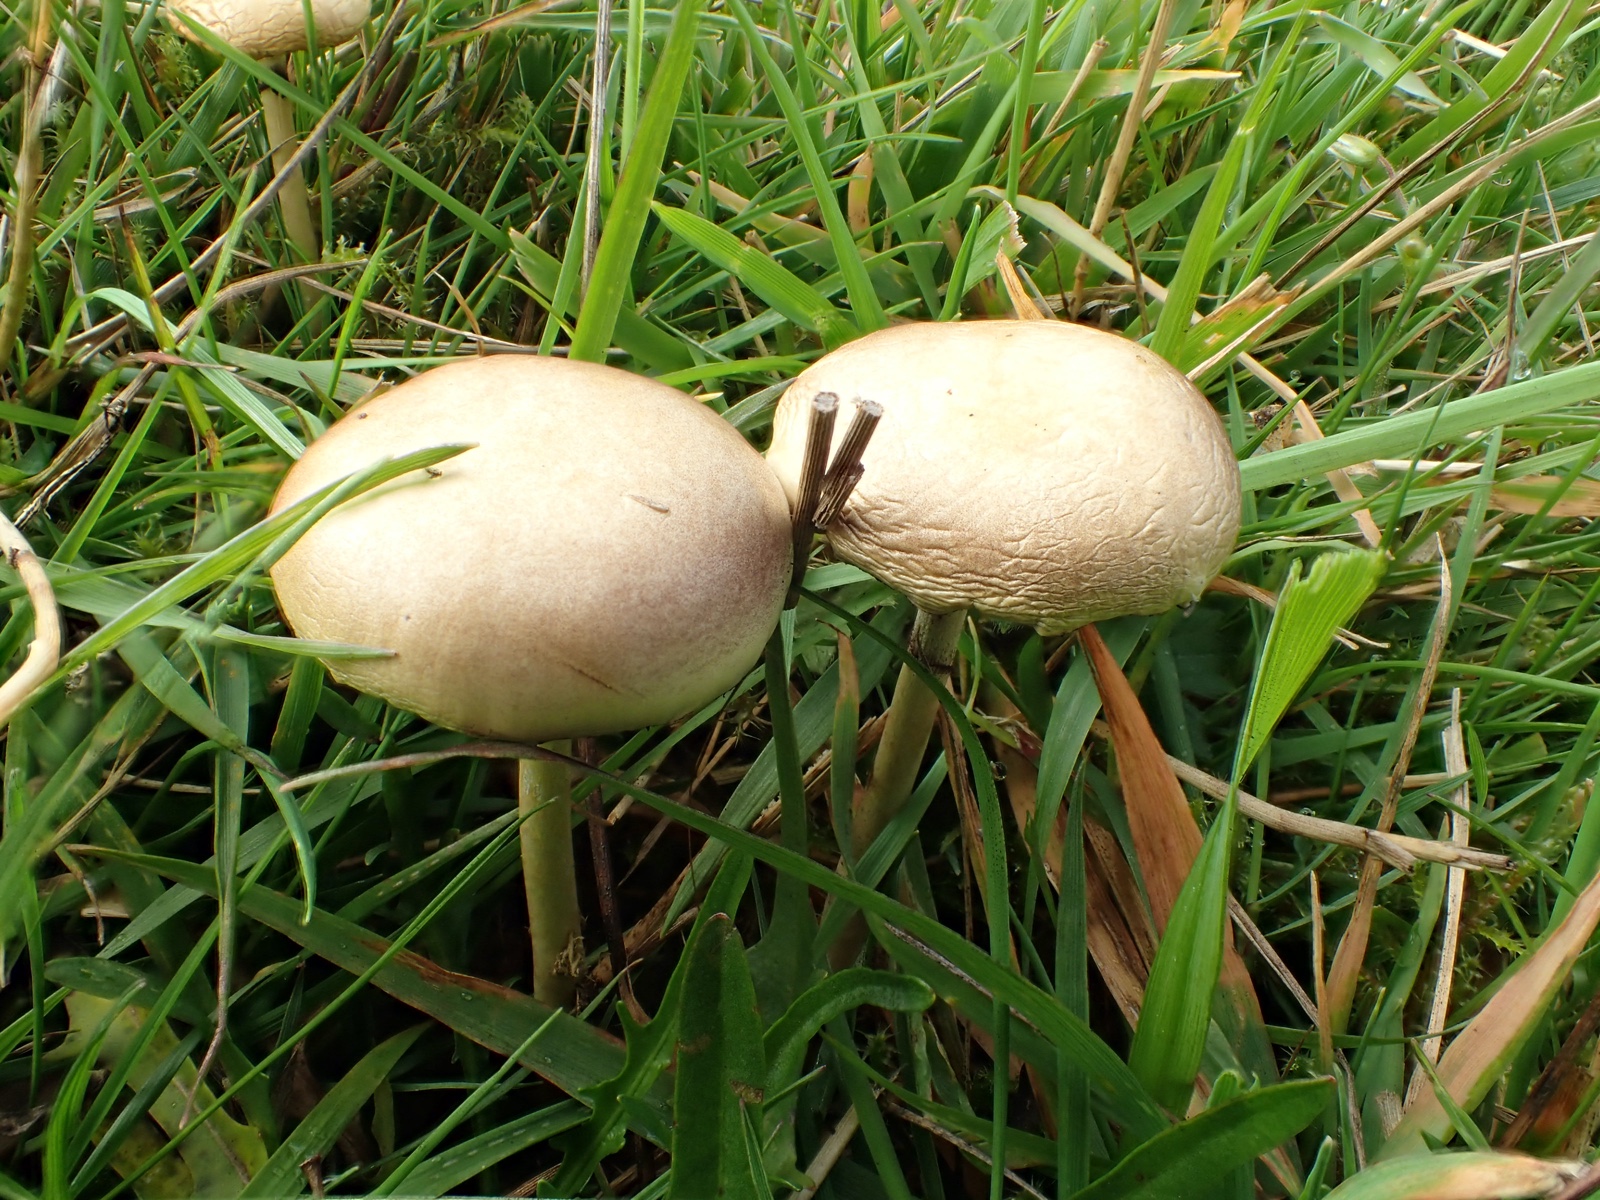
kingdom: Fungi
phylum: Basidiomycota
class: Agaricomycetes
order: Agaricales
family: Strophariaceae
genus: Protostropharia
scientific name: Protostropharia semiglobata
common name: halvkugleformet bredblad
